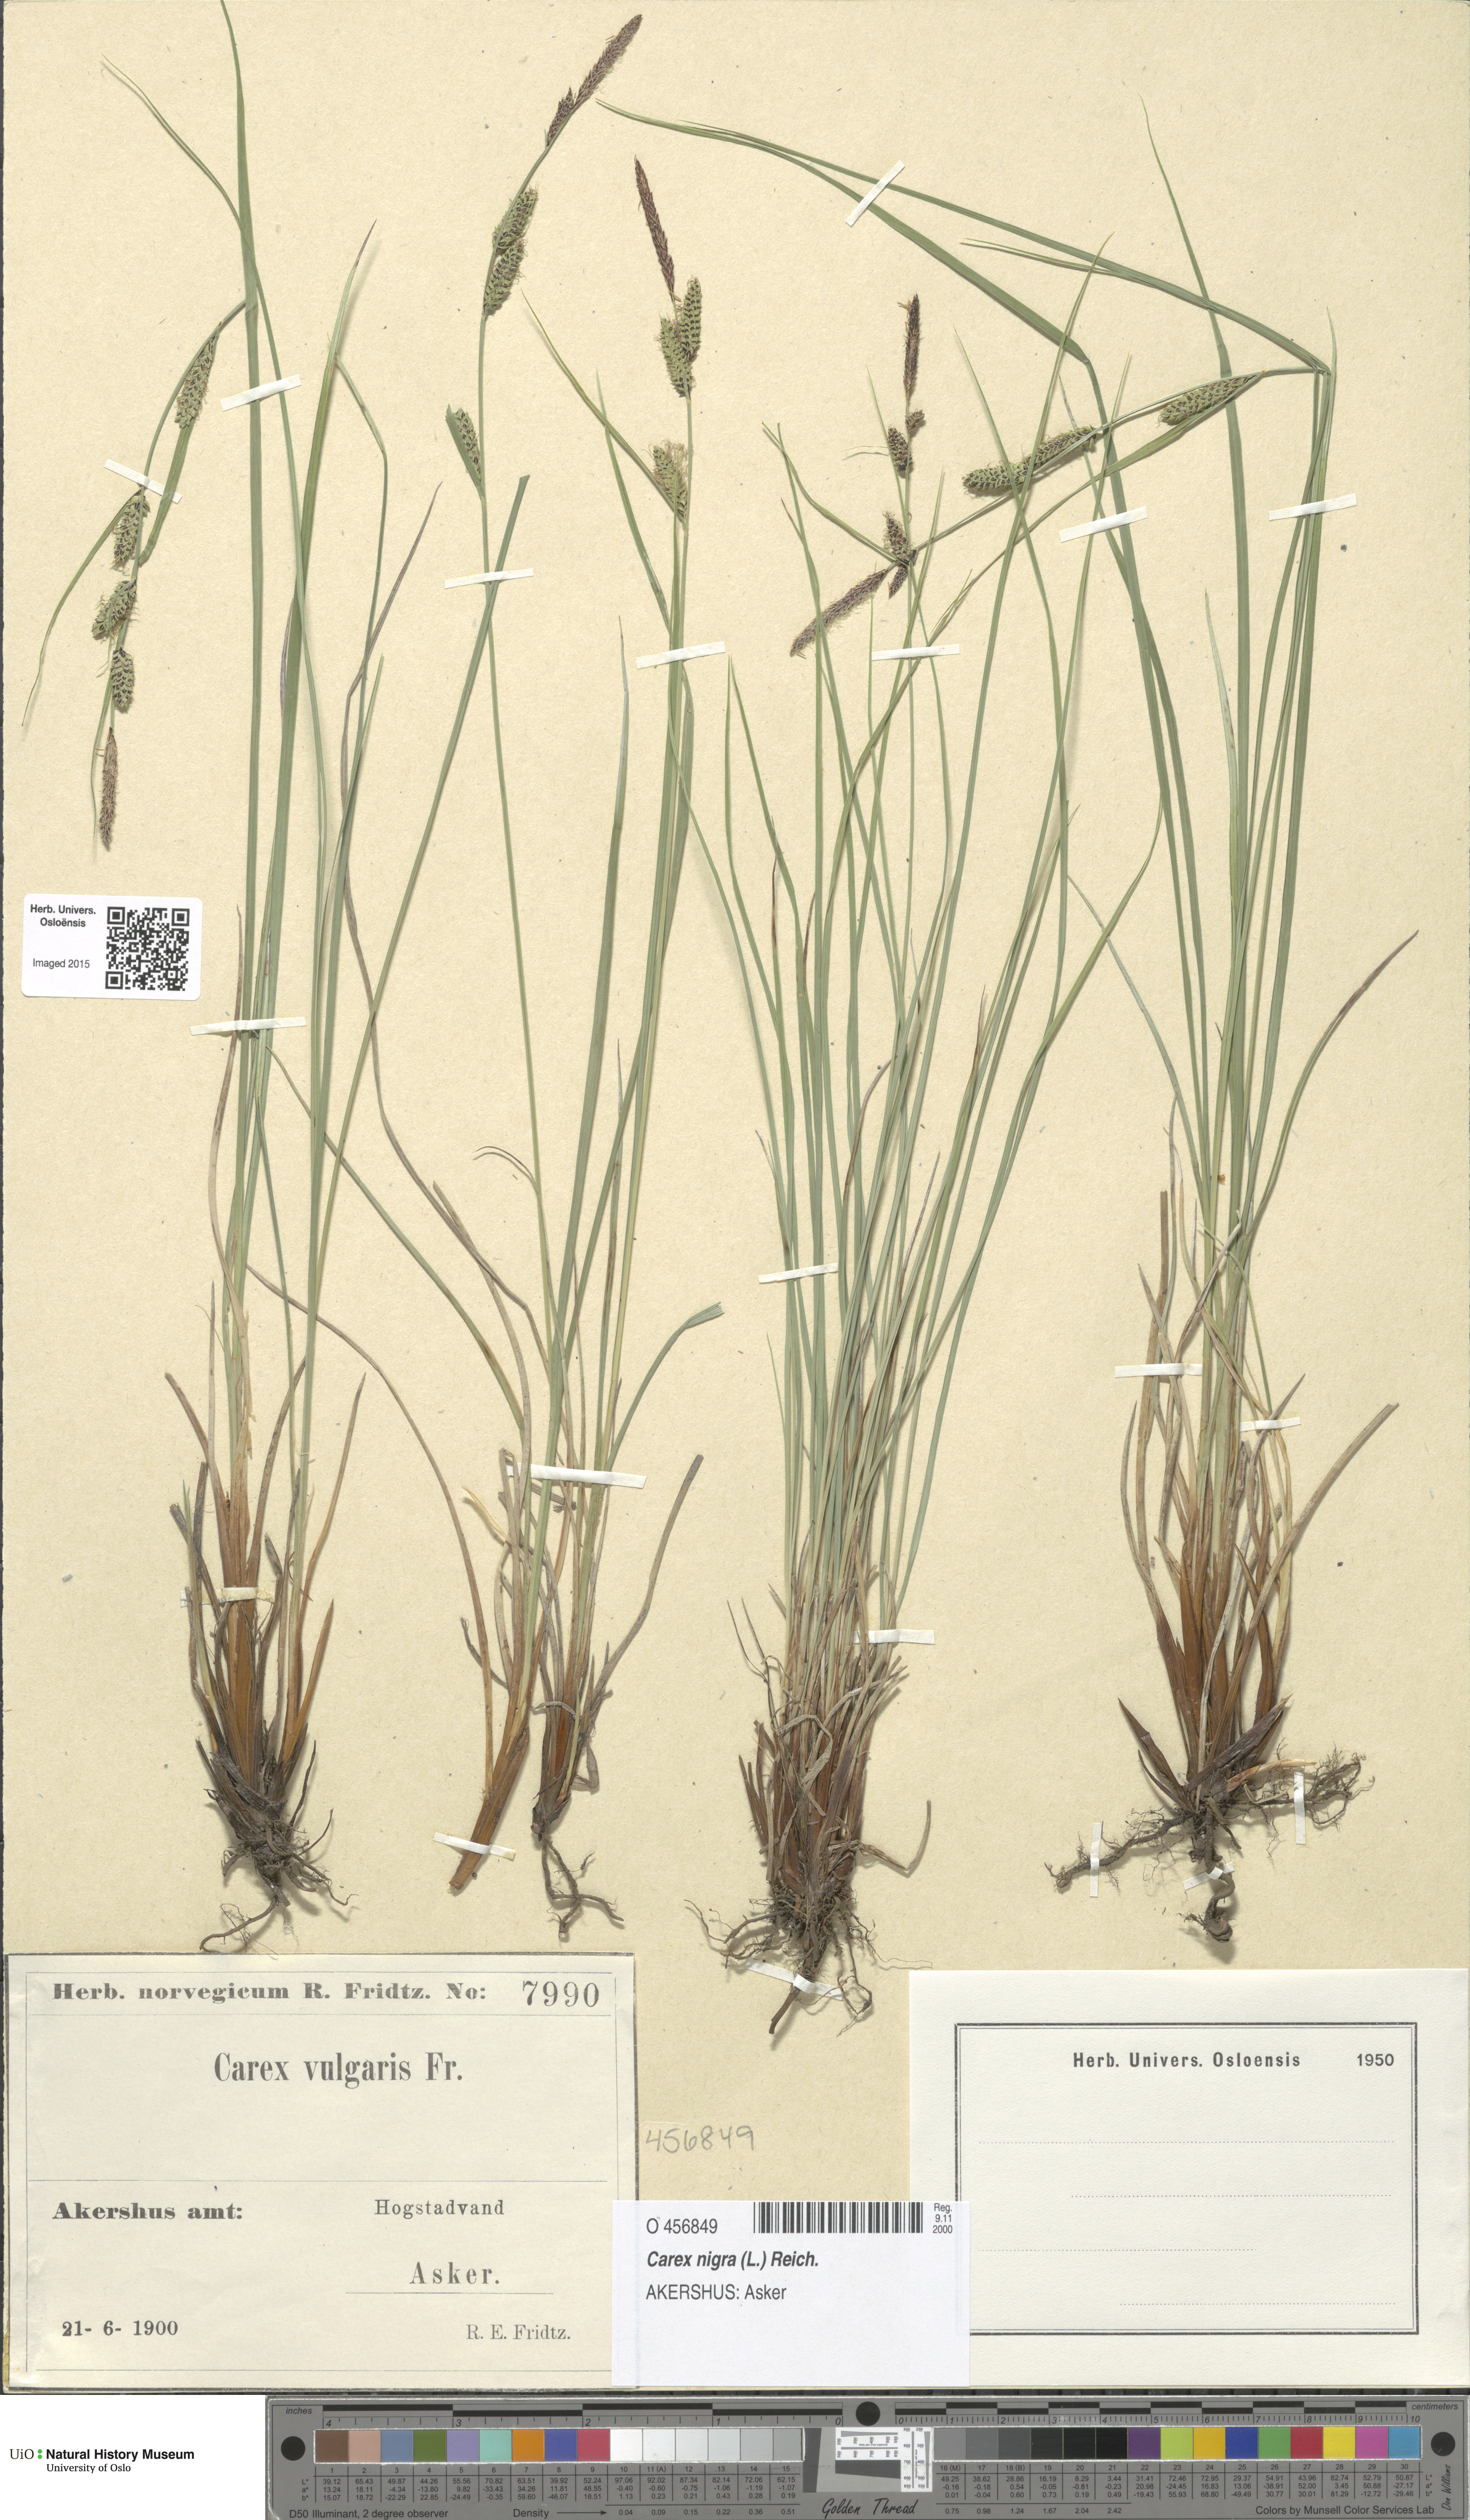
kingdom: Plantae
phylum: Tracheophyta
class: Liliopsida
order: Poales
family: Cyperaceae
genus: Carex
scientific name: Carex nigra
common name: Common sedge
